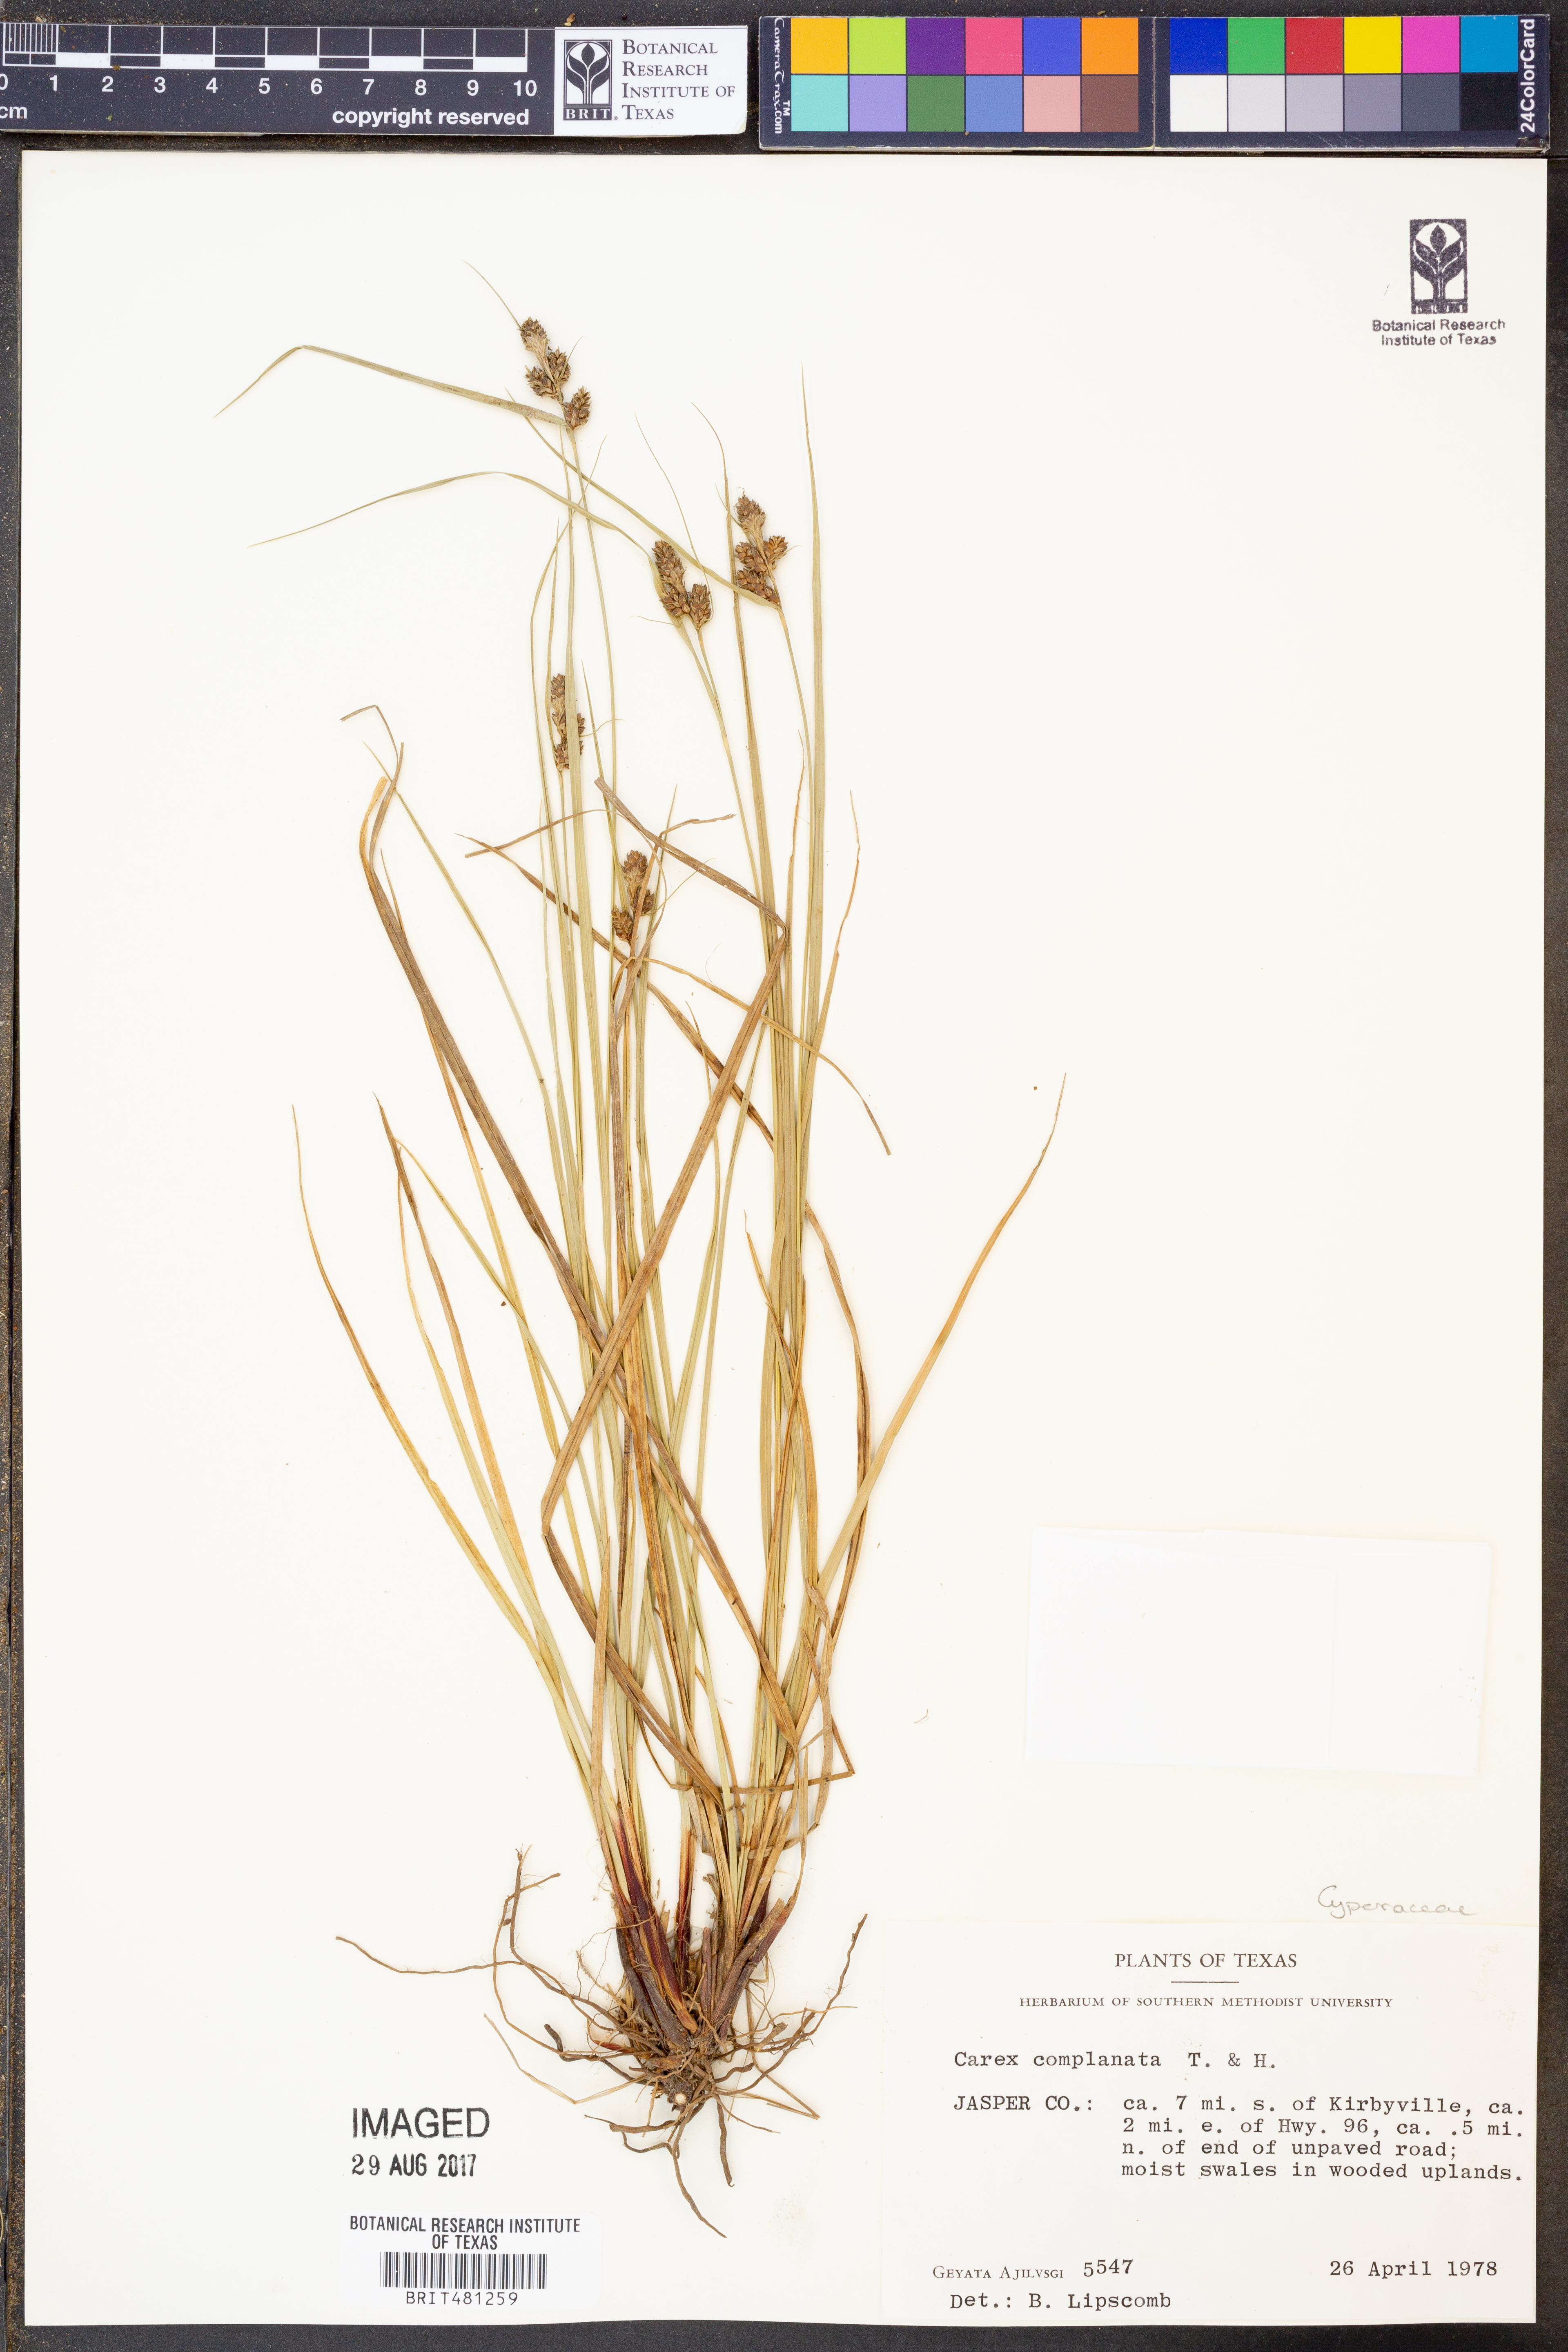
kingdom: Plantae
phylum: Tracheophyta
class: Liliopsida
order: Poales
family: Cyperaceae
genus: Carex
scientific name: Carex complanata
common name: Hirsute sedge
